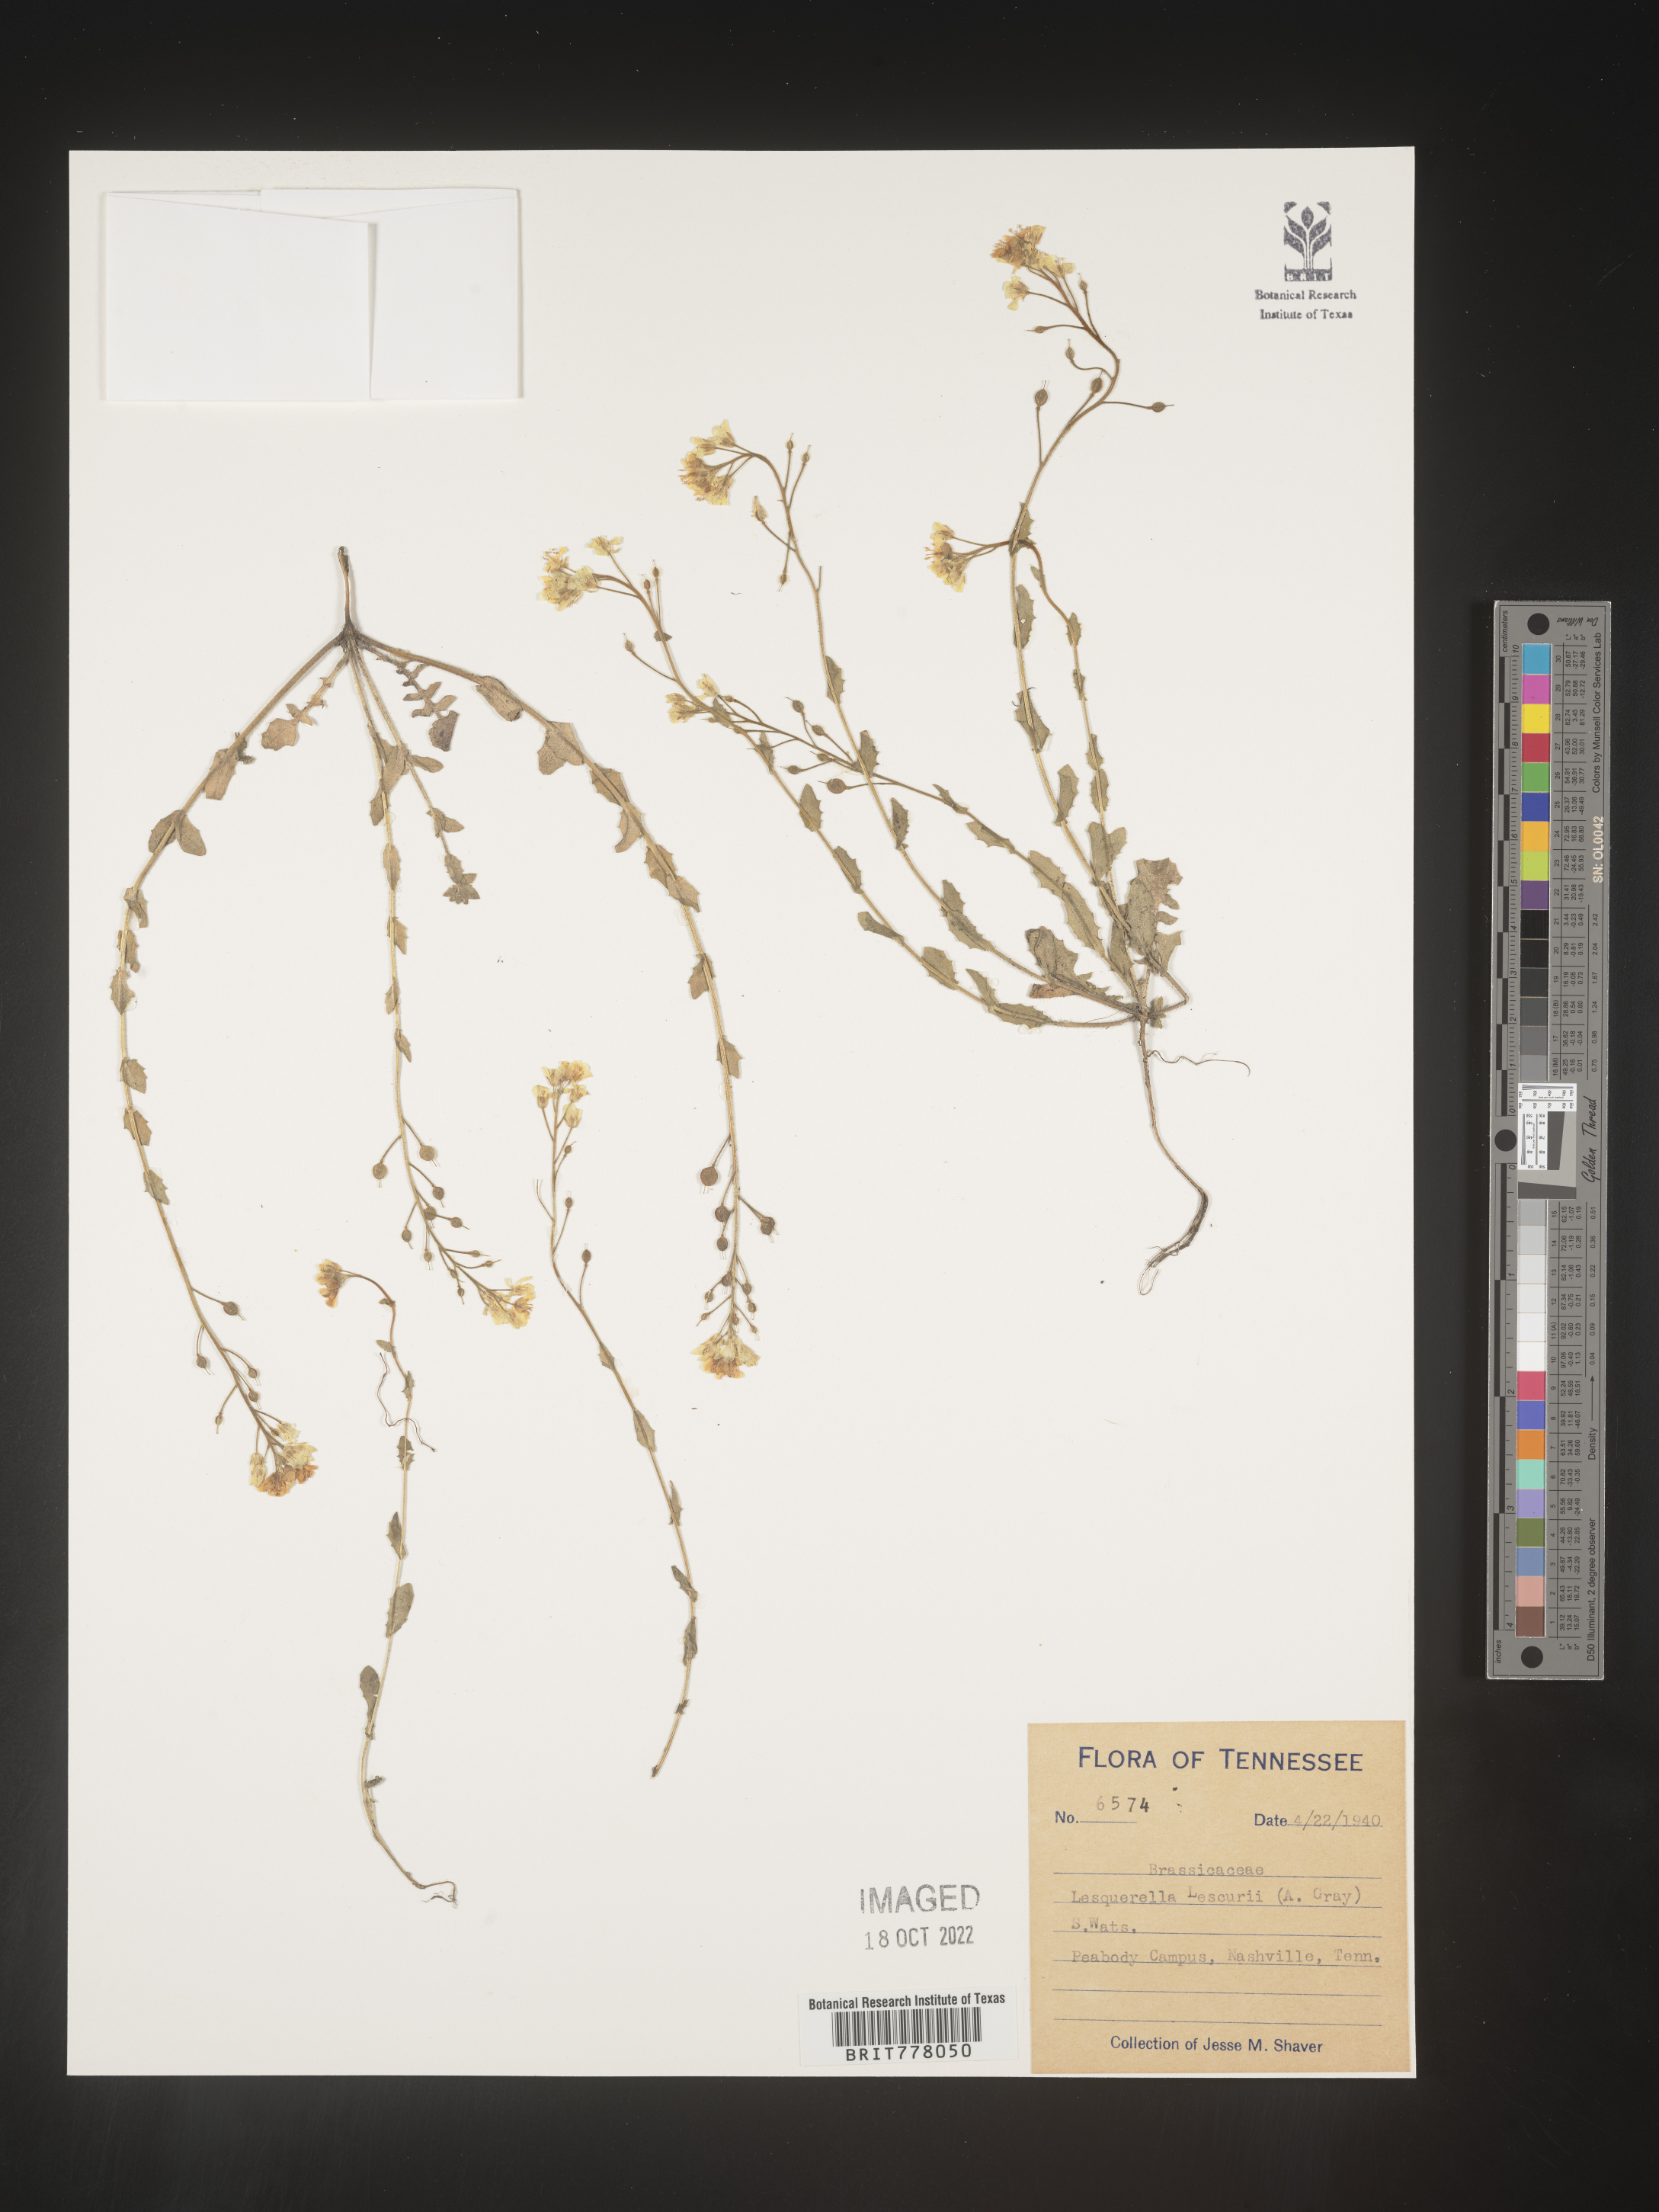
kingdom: Chromista
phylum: Cercozoa
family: Psammonobiotidae
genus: Lesquerella
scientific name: Lesquerella
